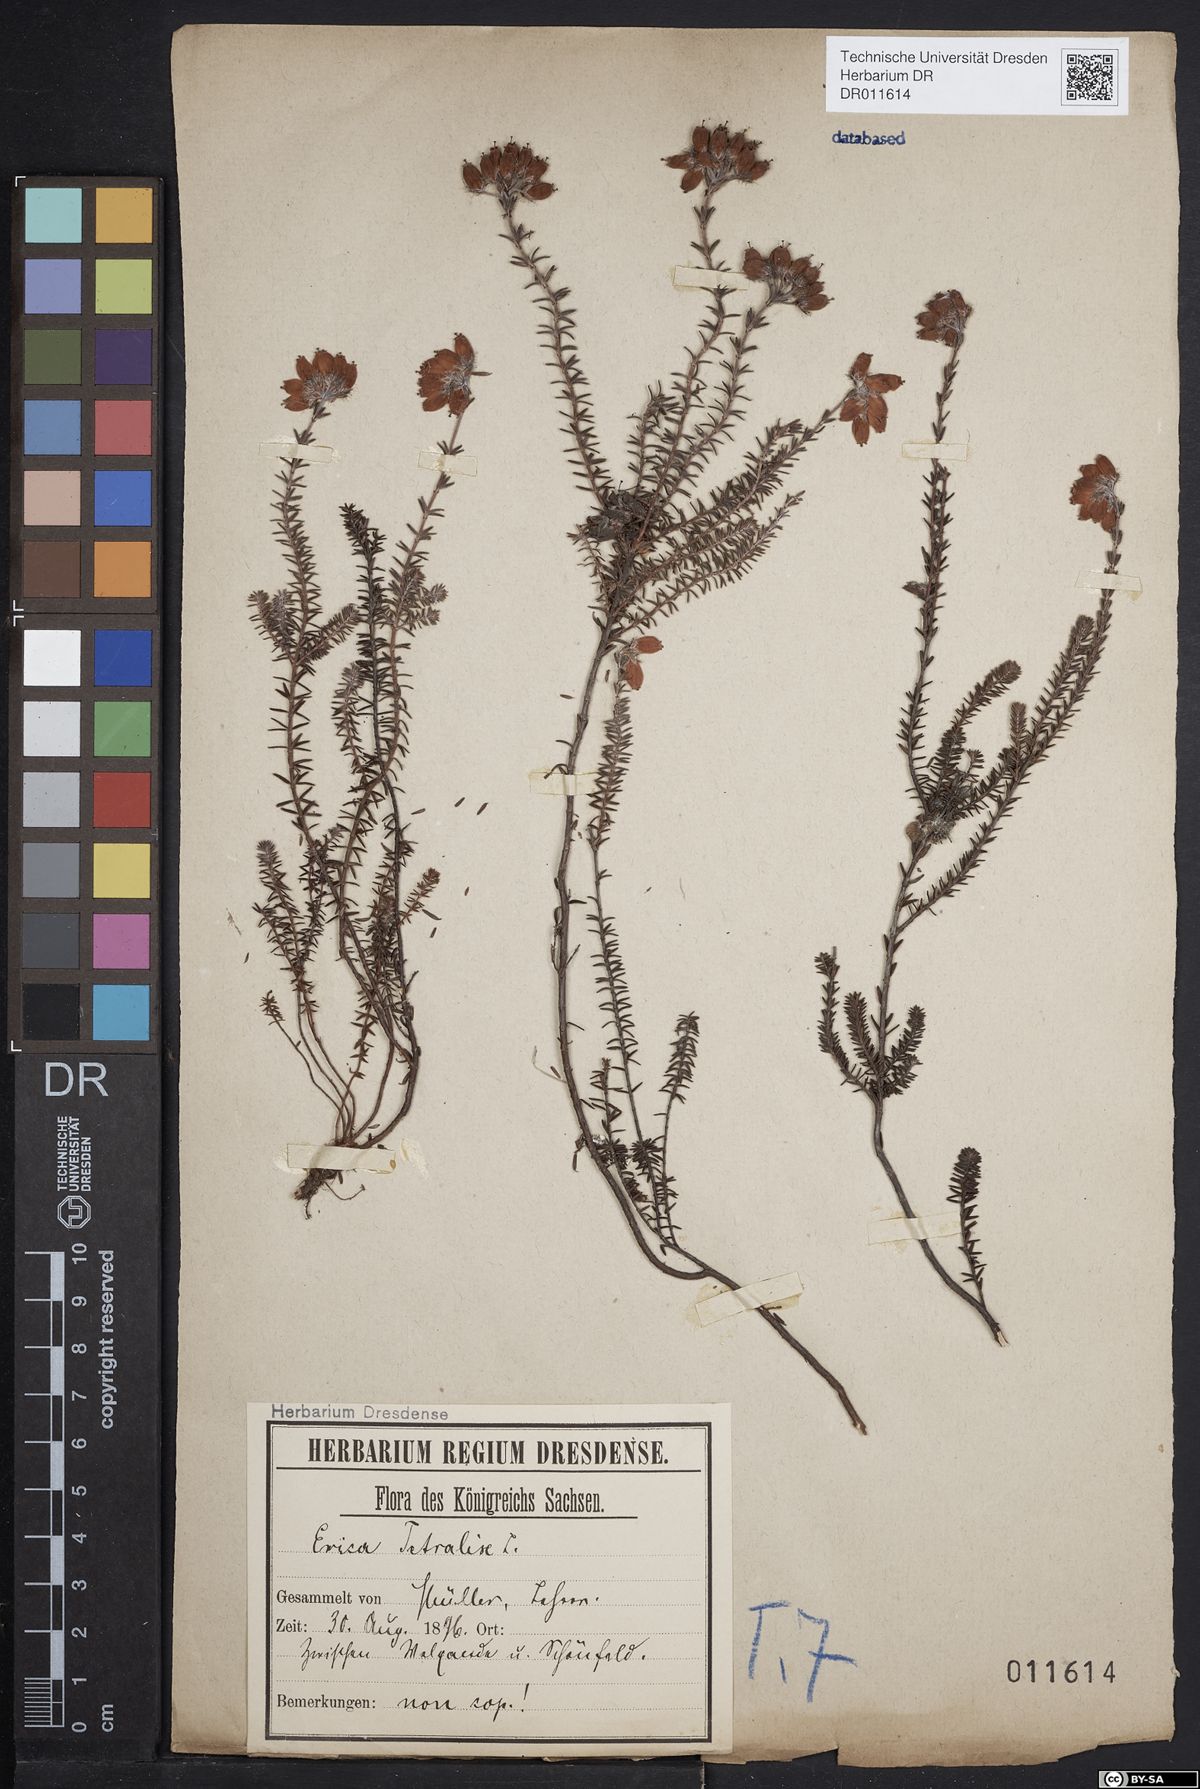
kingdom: Plantae
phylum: Tracheophyta
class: Magnoliopsida
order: Ericales
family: Ericaceae
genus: Erica
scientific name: Erica tetralix
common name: Cross-leaved heath
